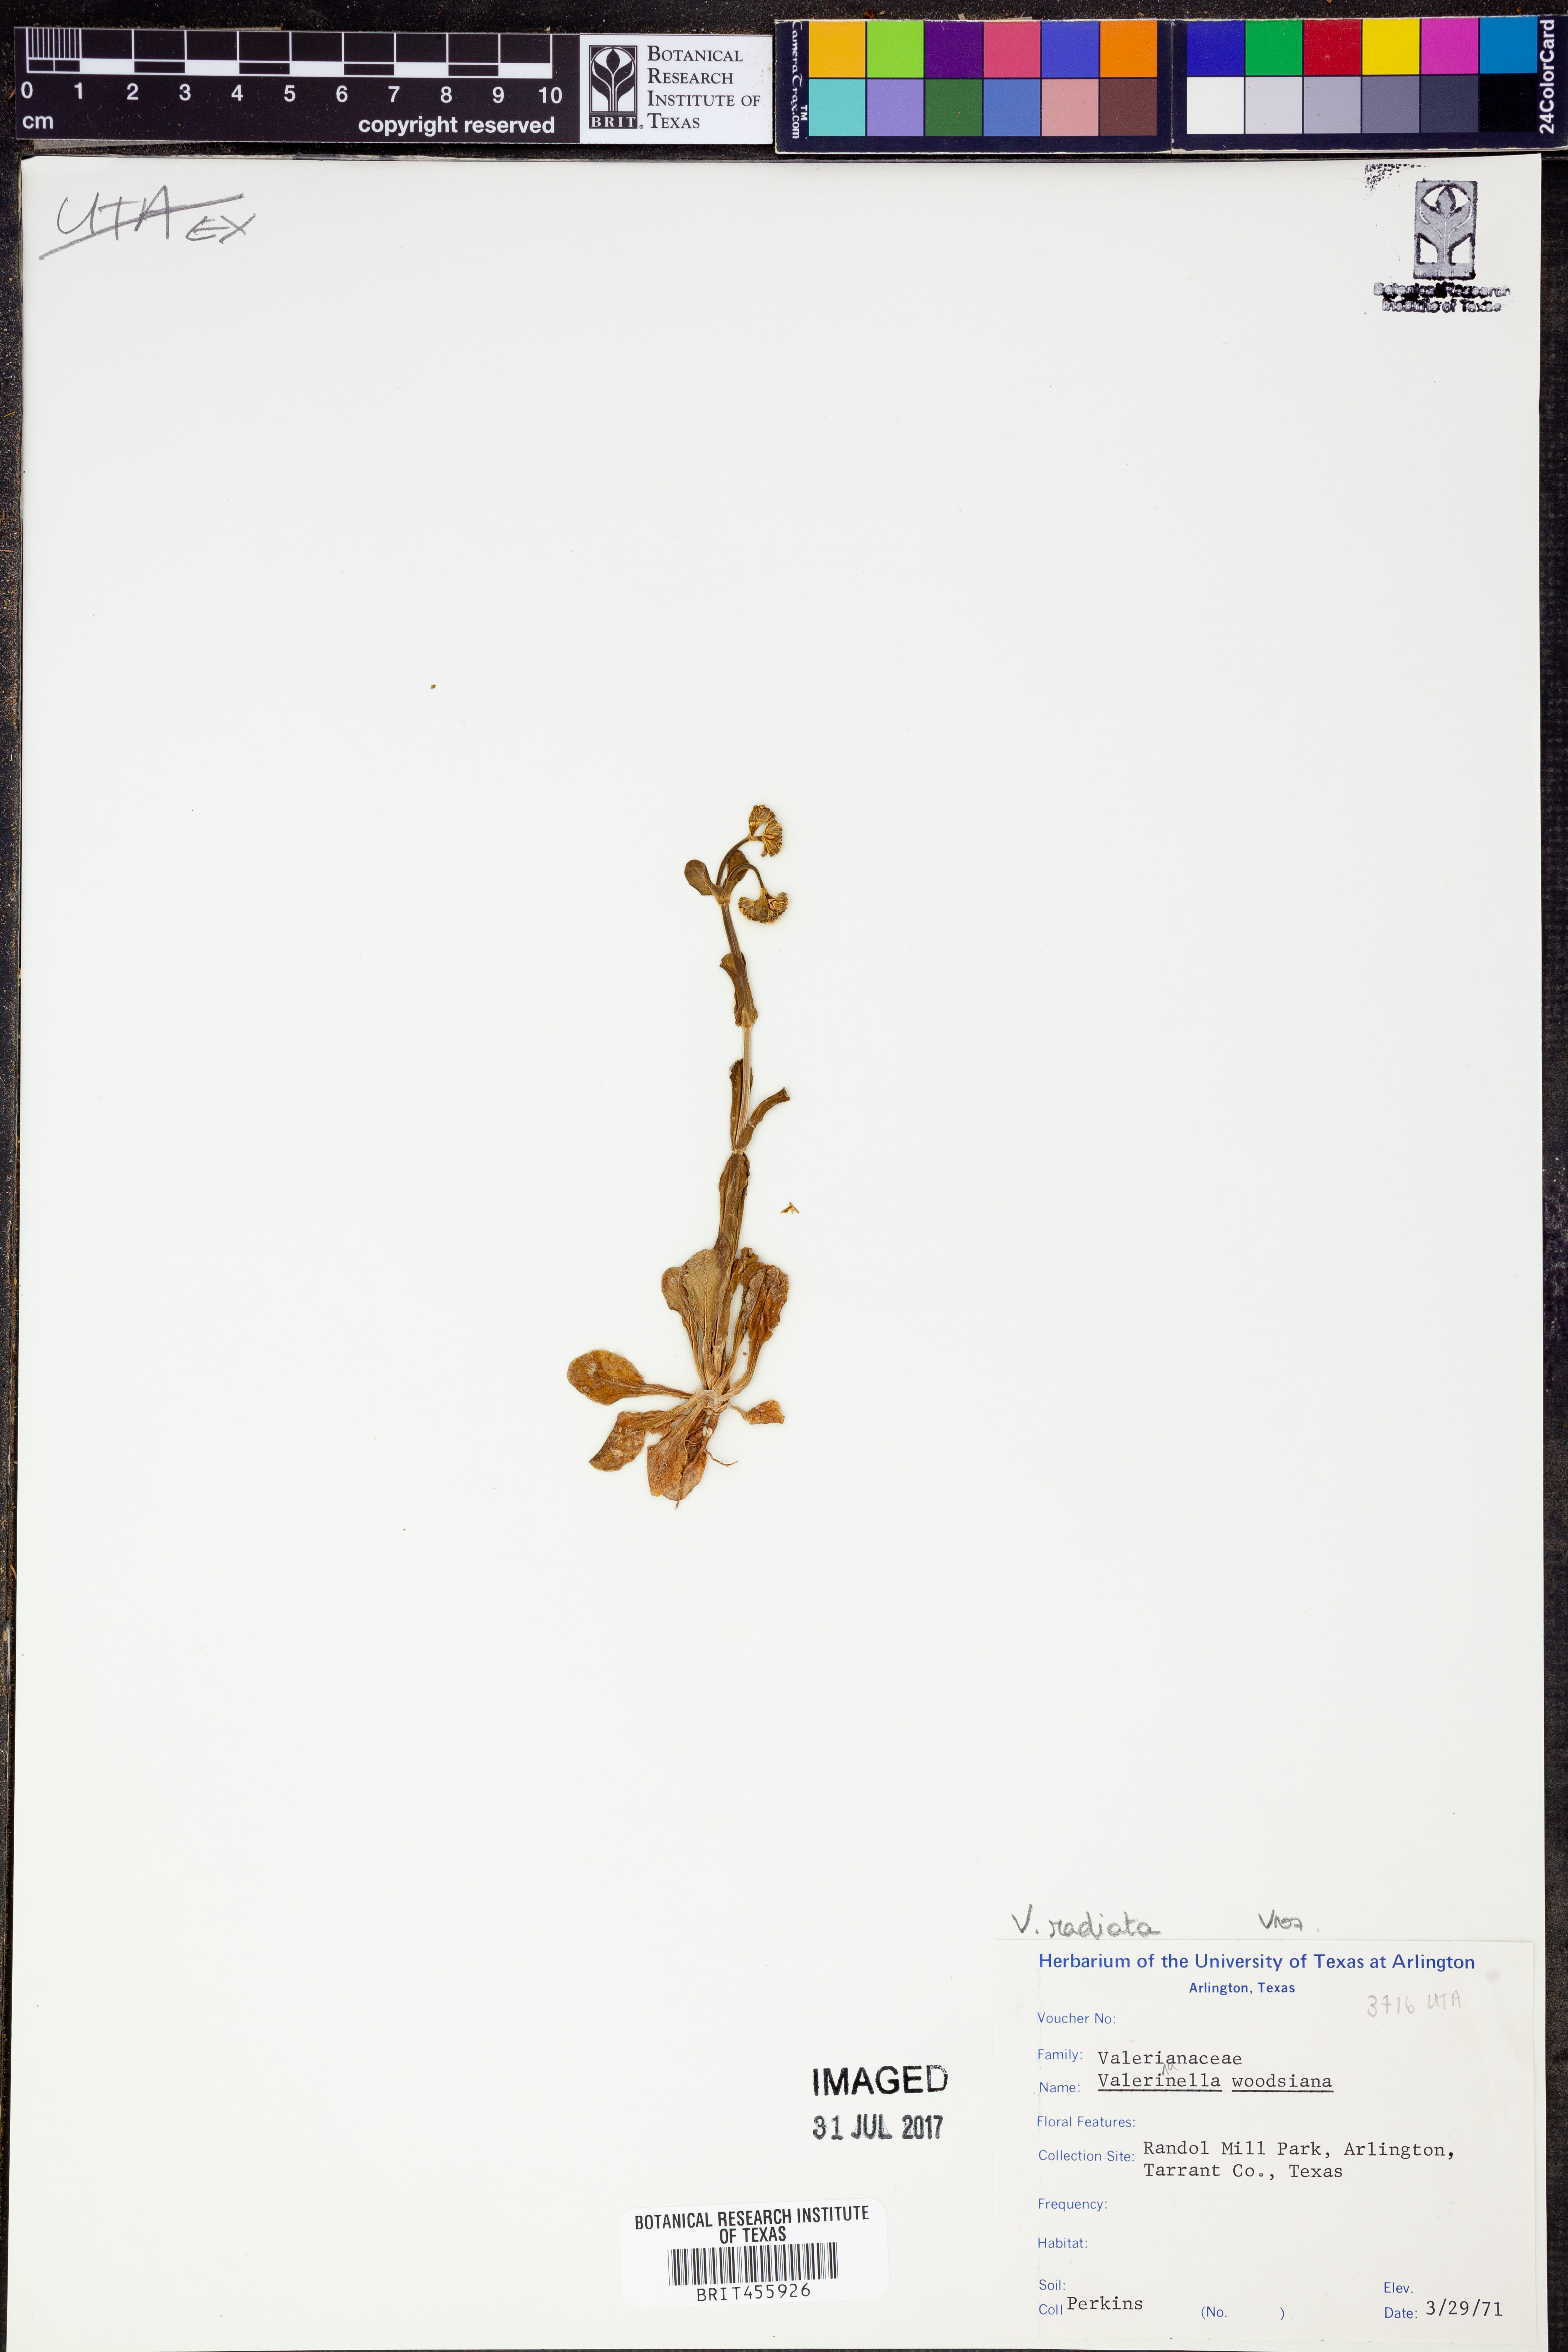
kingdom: Plantae
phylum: Tracheophyta
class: Magnoliopsida
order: Dipsacales
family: Caprifoliaceae
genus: Valerianella
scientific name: Valerianella radiata
